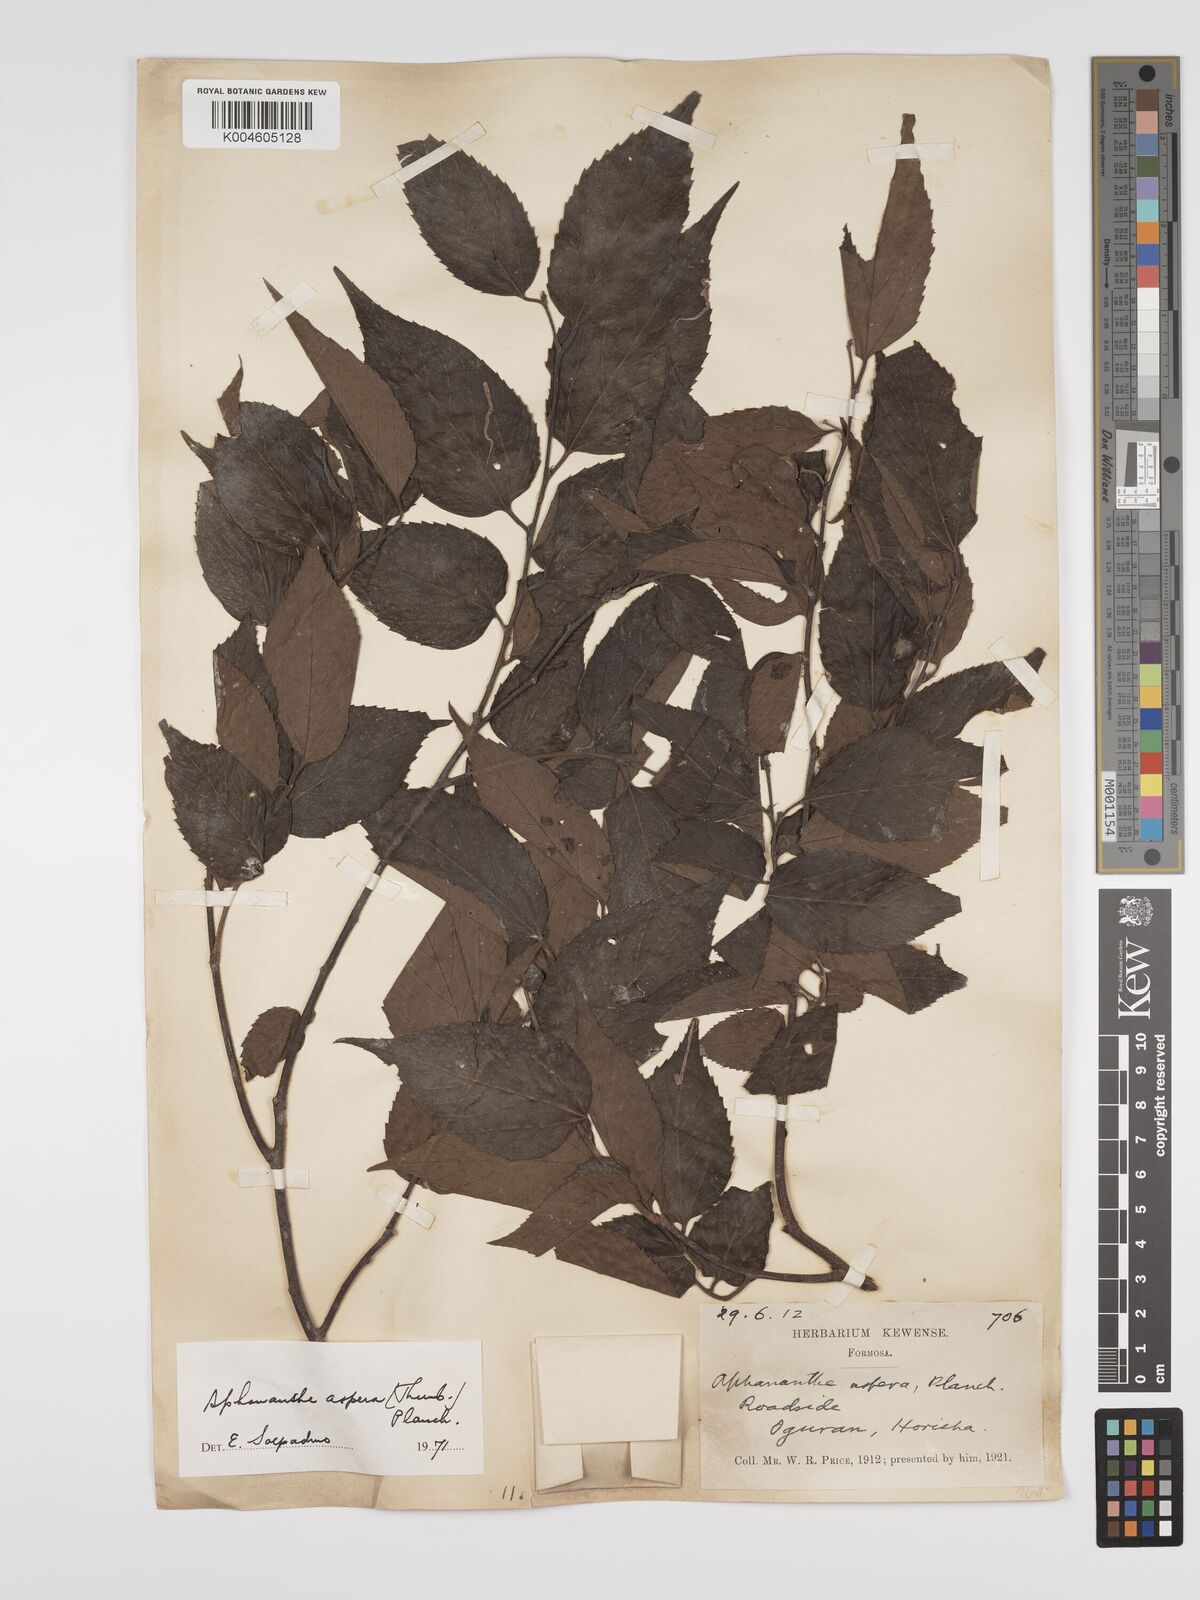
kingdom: Plantae
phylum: Tracheophyta
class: Magnoliopsida
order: Rosales
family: Cannabaceae
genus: Aphananthe
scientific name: Aphananthe aspera
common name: Mukutree
